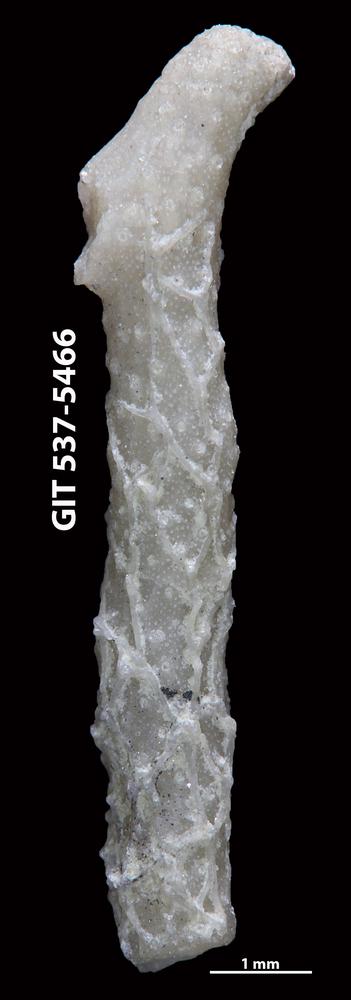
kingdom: Animalia
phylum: Bryozoa
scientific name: Bryozoa
